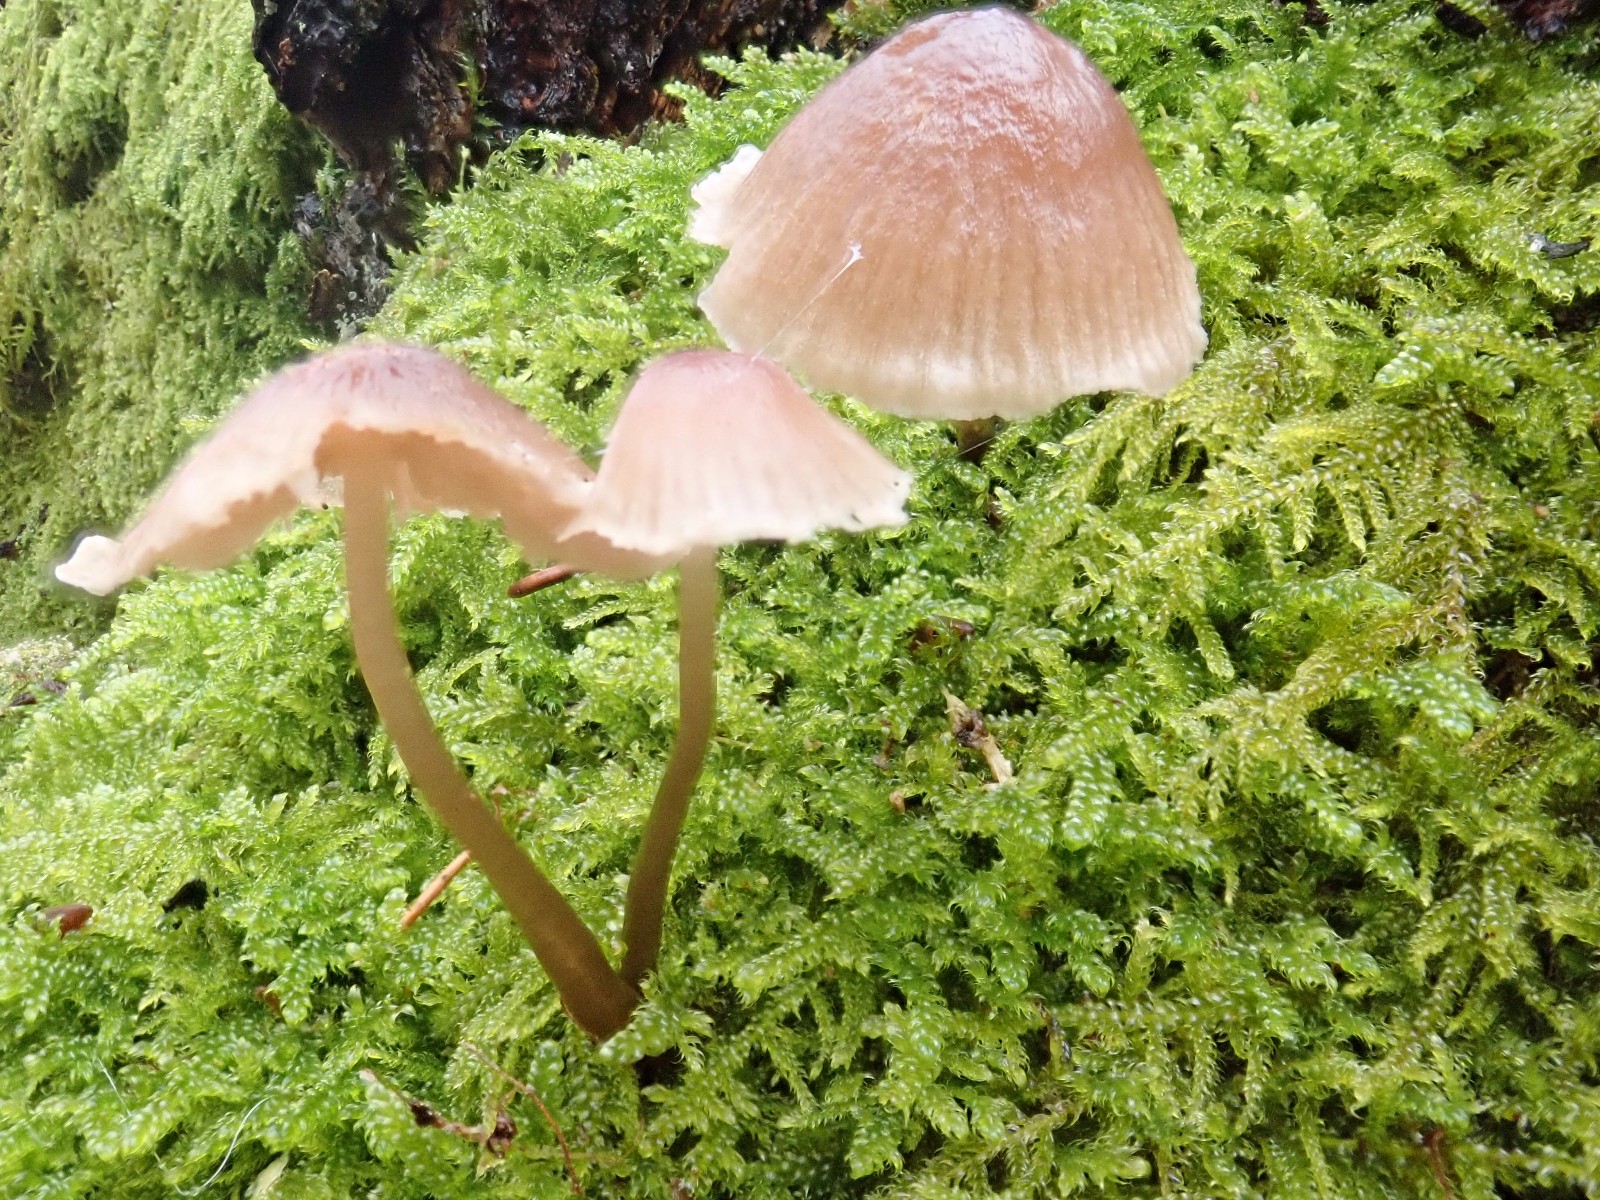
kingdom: Fungi
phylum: Basidiomycota
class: Agaricomycetes
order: Agaricales
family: Mycenaceae
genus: Mycena
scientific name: Mycena
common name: huesvamp
